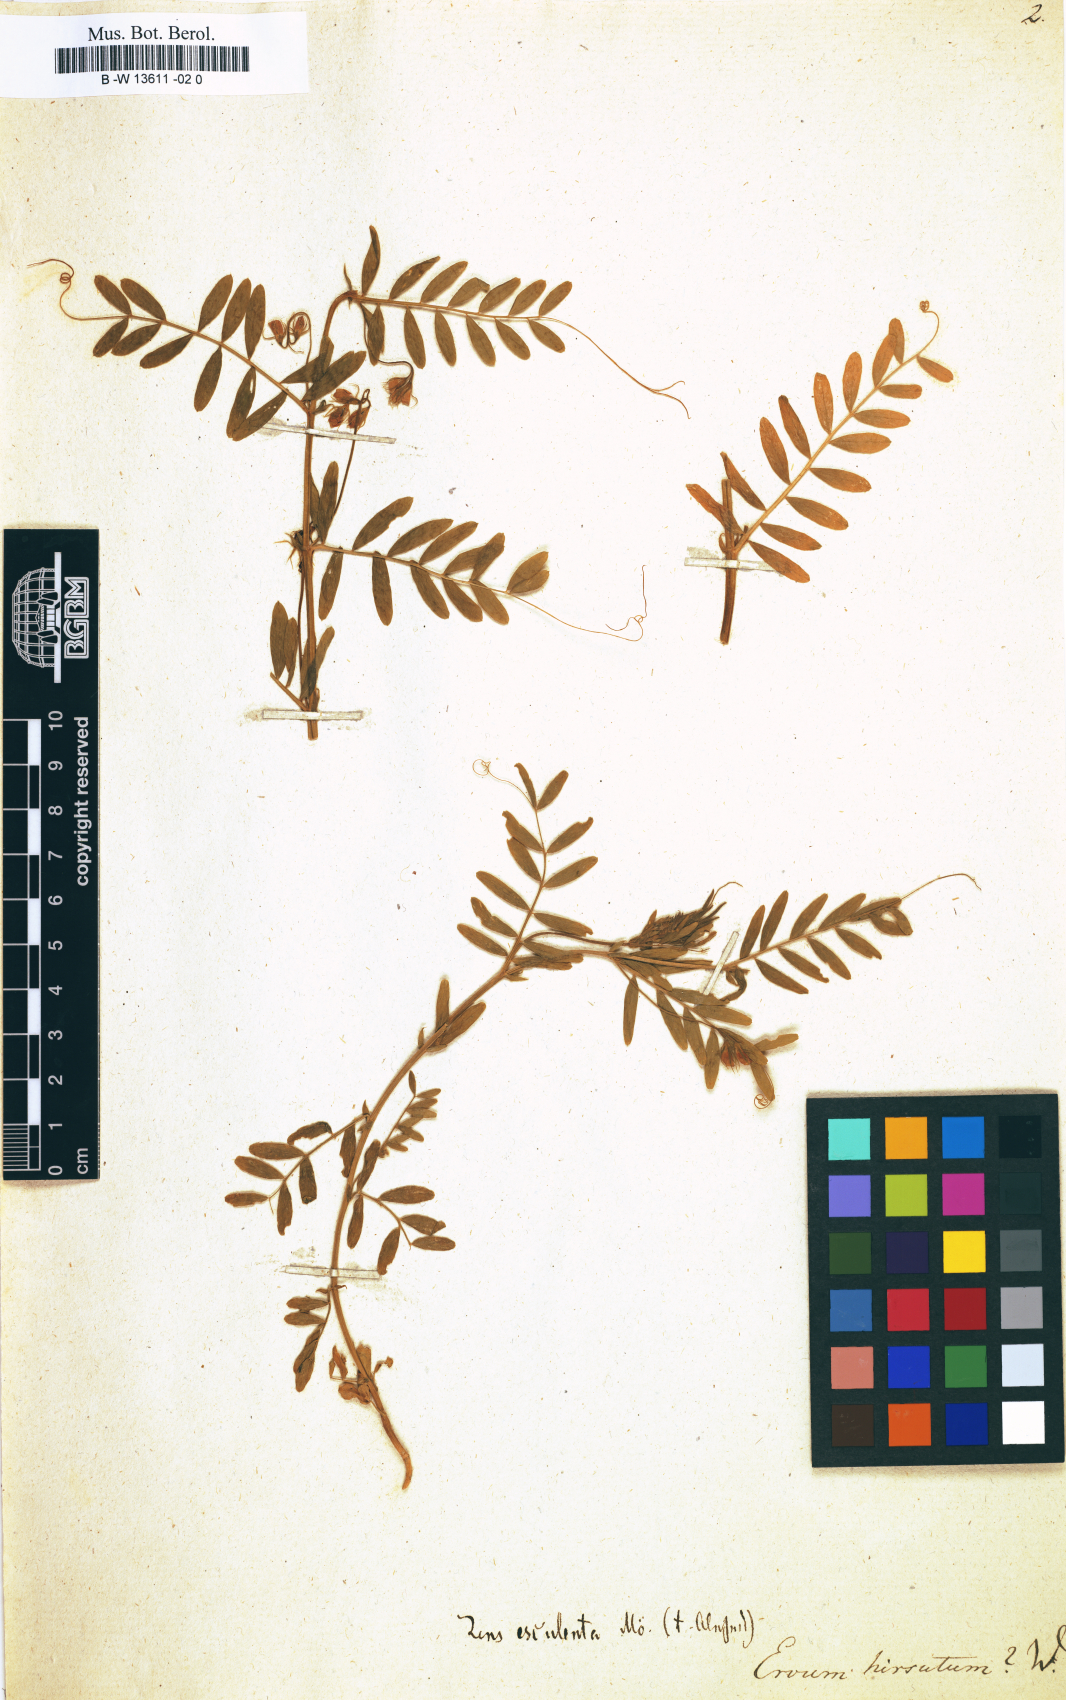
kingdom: Plantae
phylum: Tracheophyta
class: Magnoliopsida
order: Fabales
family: Fabaceae
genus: Vicia
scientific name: Vicia hirsuta
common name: Tiny vetch
